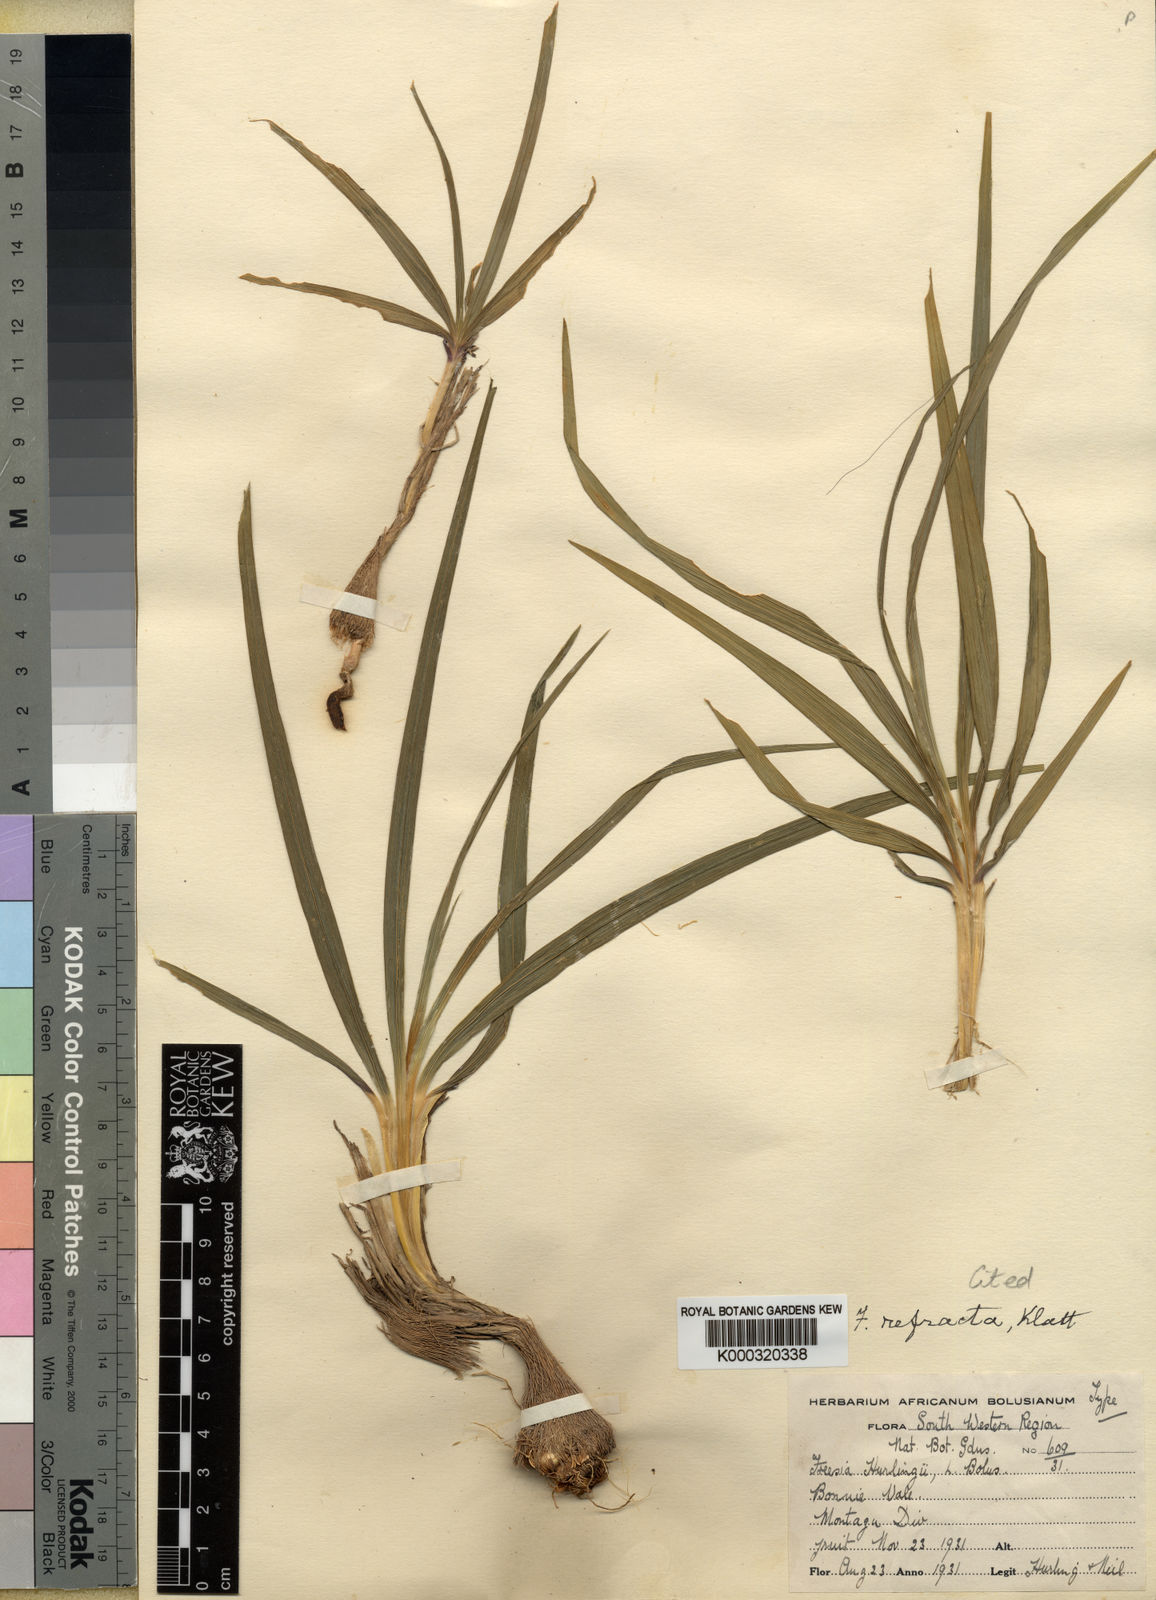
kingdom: Plantae
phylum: Tracheophyta
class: Liliopsida
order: Asparagales
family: Iridaceae
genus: Freesia
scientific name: Freesia refracta
